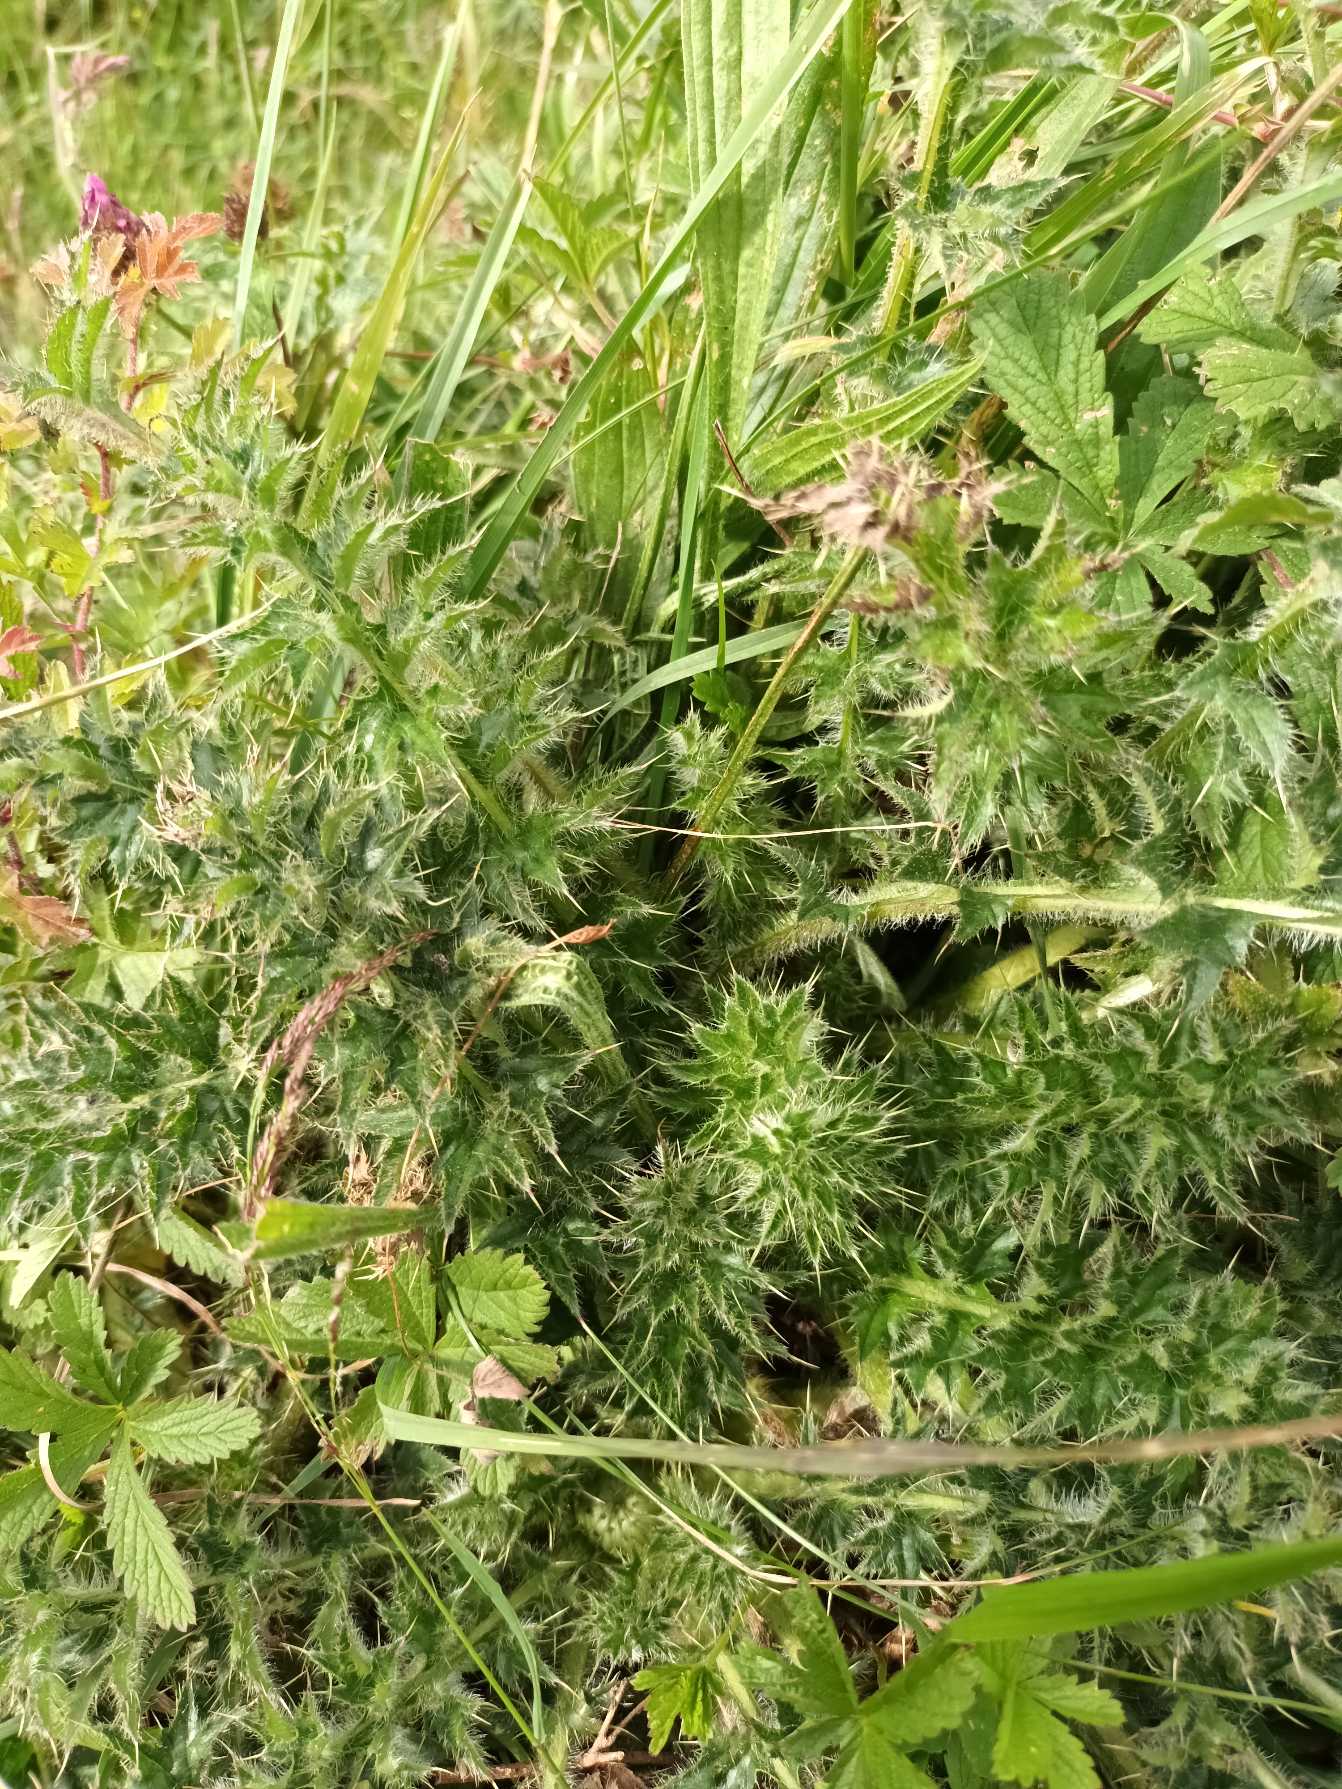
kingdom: Plantae
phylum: Tracheophyta
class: Magnoliopsida
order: Asterales
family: Asteraceae
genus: Cirsium
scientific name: Cirsium acaule
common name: Lav tidsel
